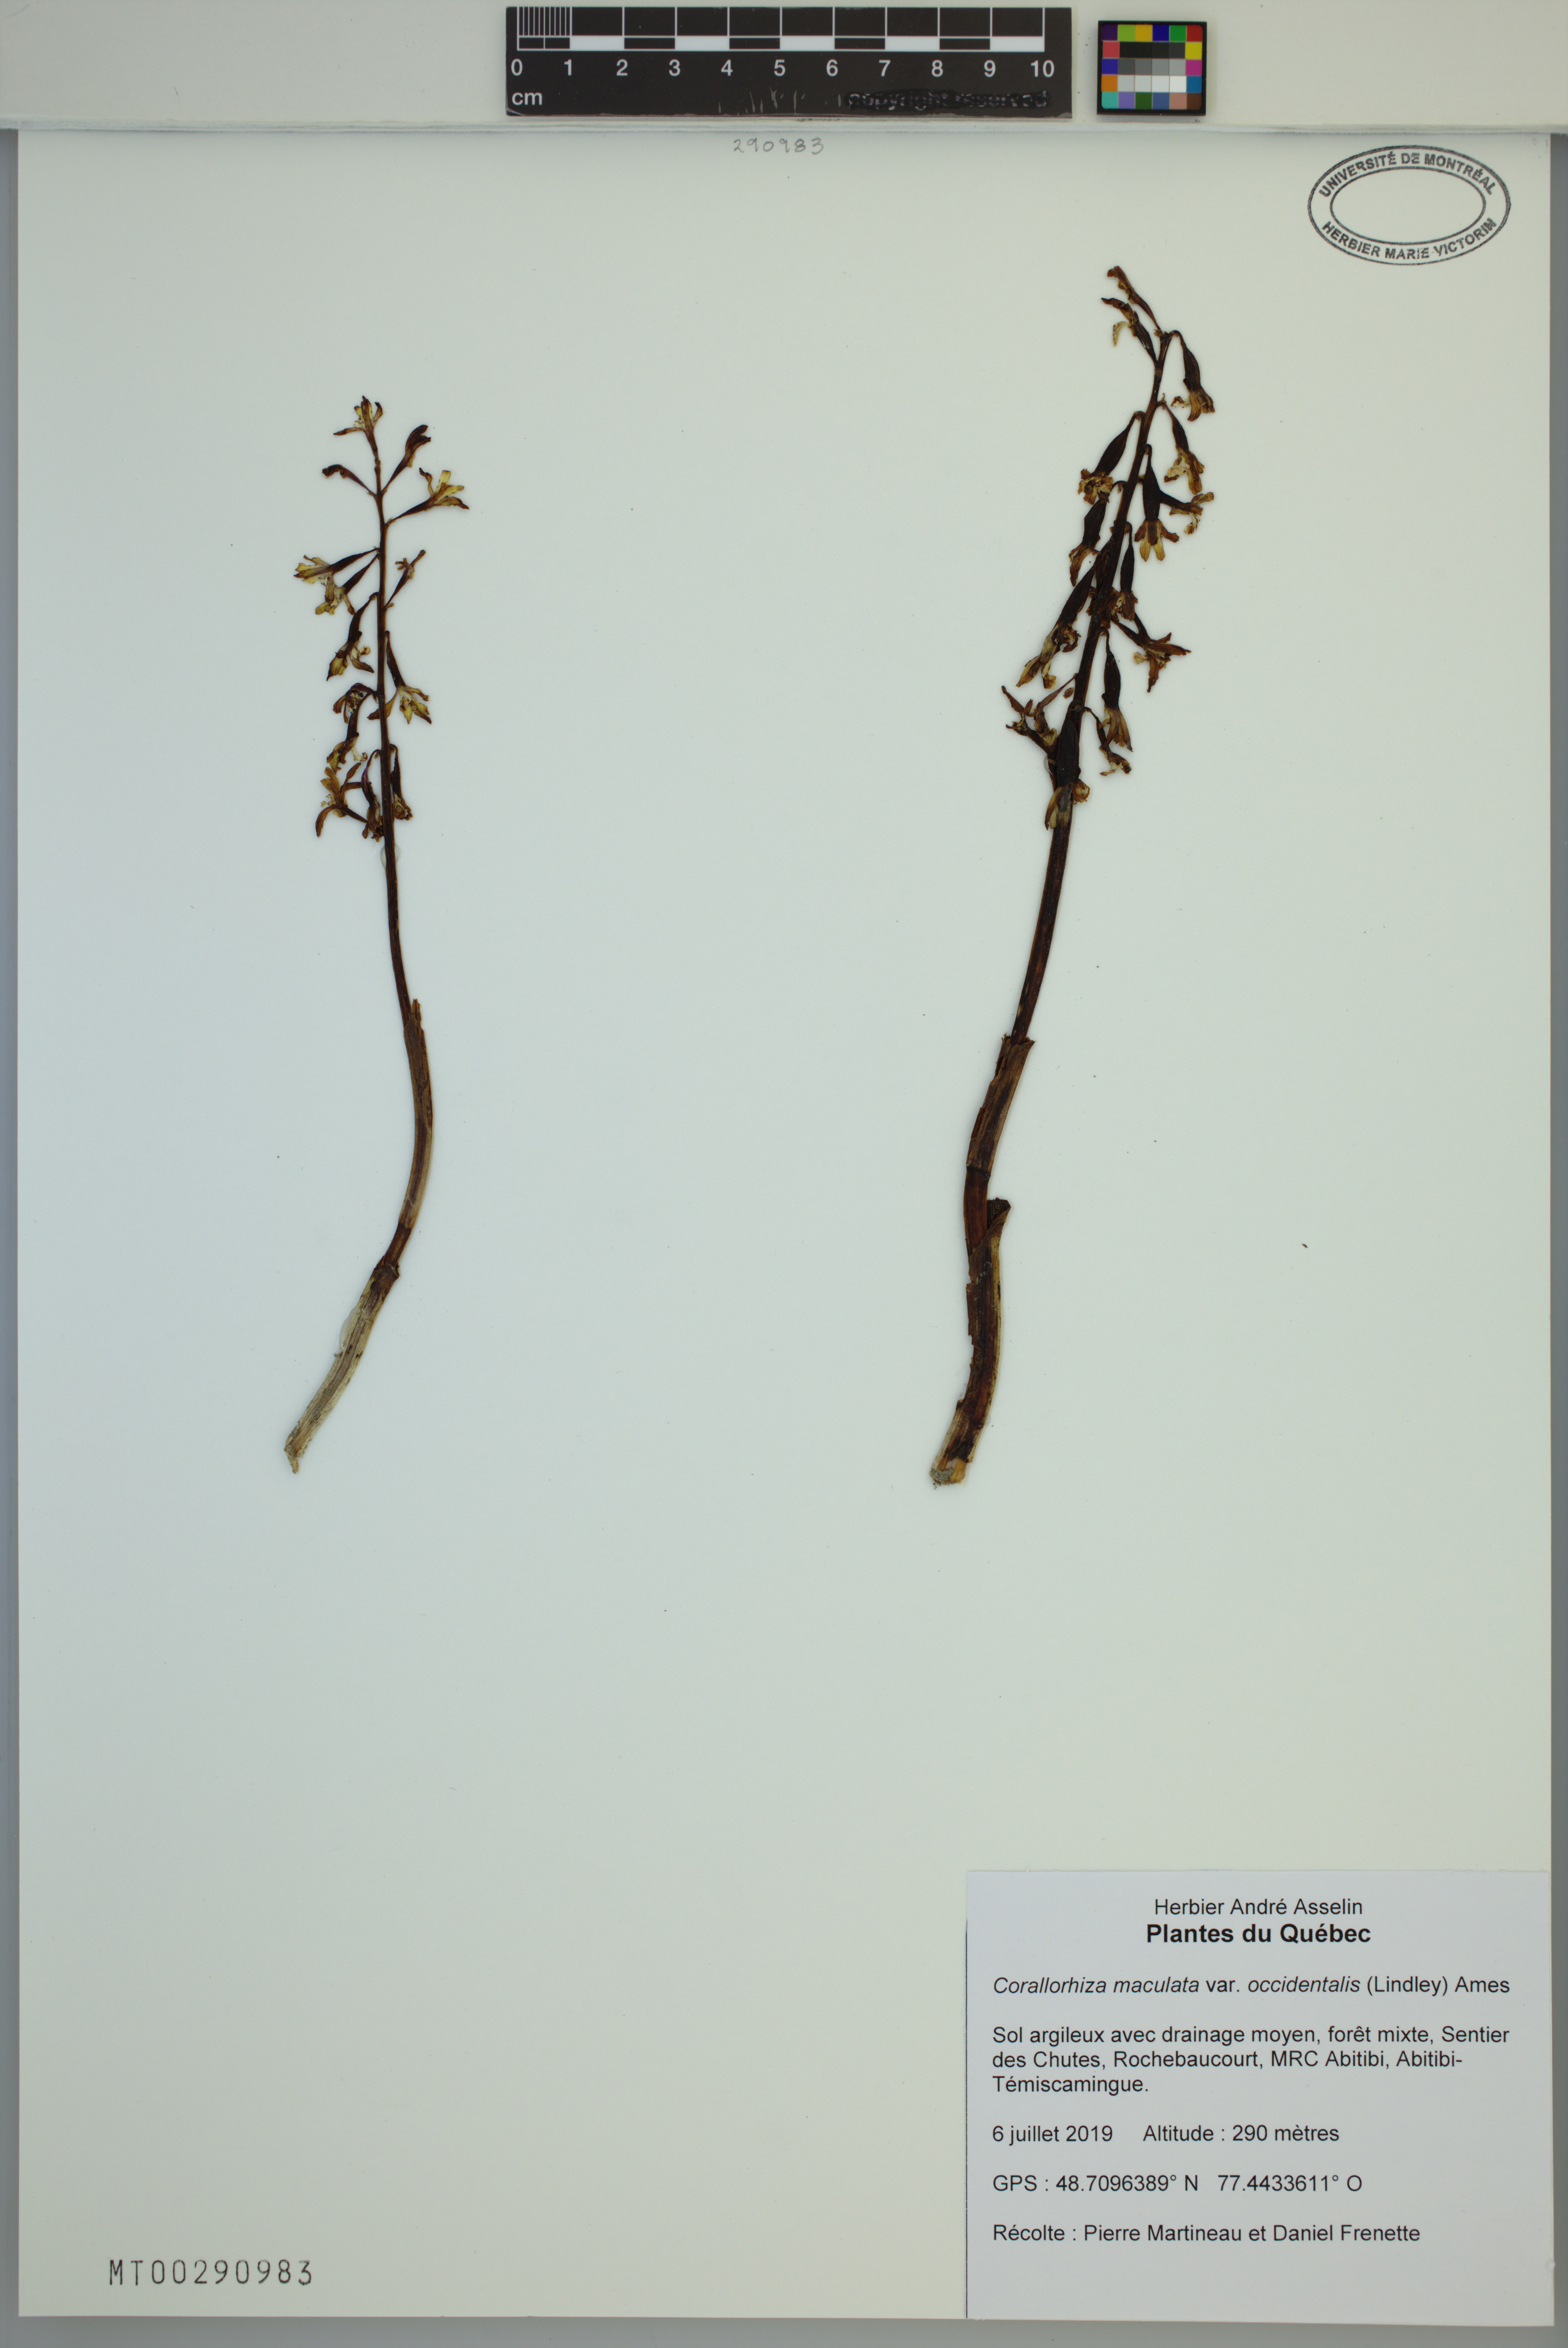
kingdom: Plantae
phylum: Tracheophyta
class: Liliopsida
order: Asparagales
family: Orchidaceae
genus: Corallorhiza
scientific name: Corallorhiza maculata
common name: Spotted coralroot
